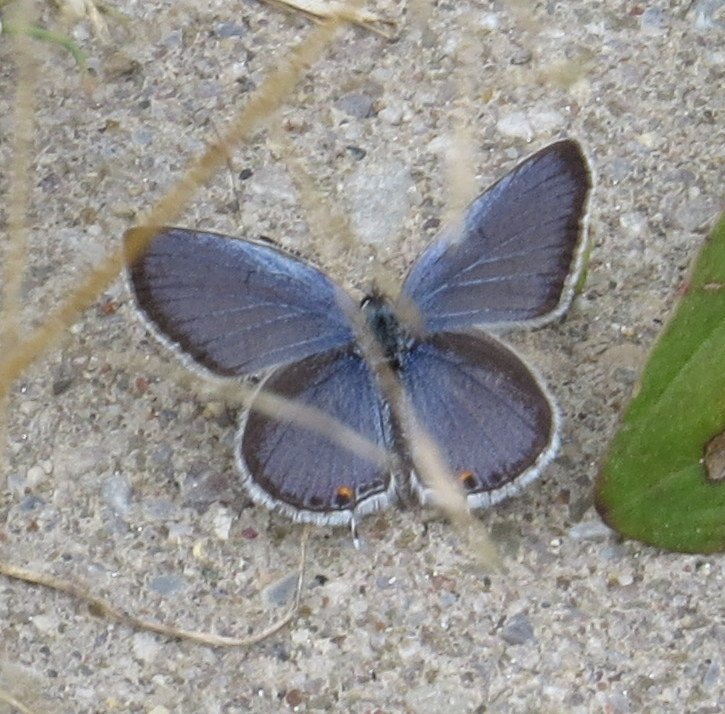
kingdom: Animalia
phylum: Arthropoda
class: Insecta
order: Lepidoptera
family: Lycaenidae
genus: Elkalyce
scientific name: Elkalyce comyntas
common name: Eastern Tailed-Blue
